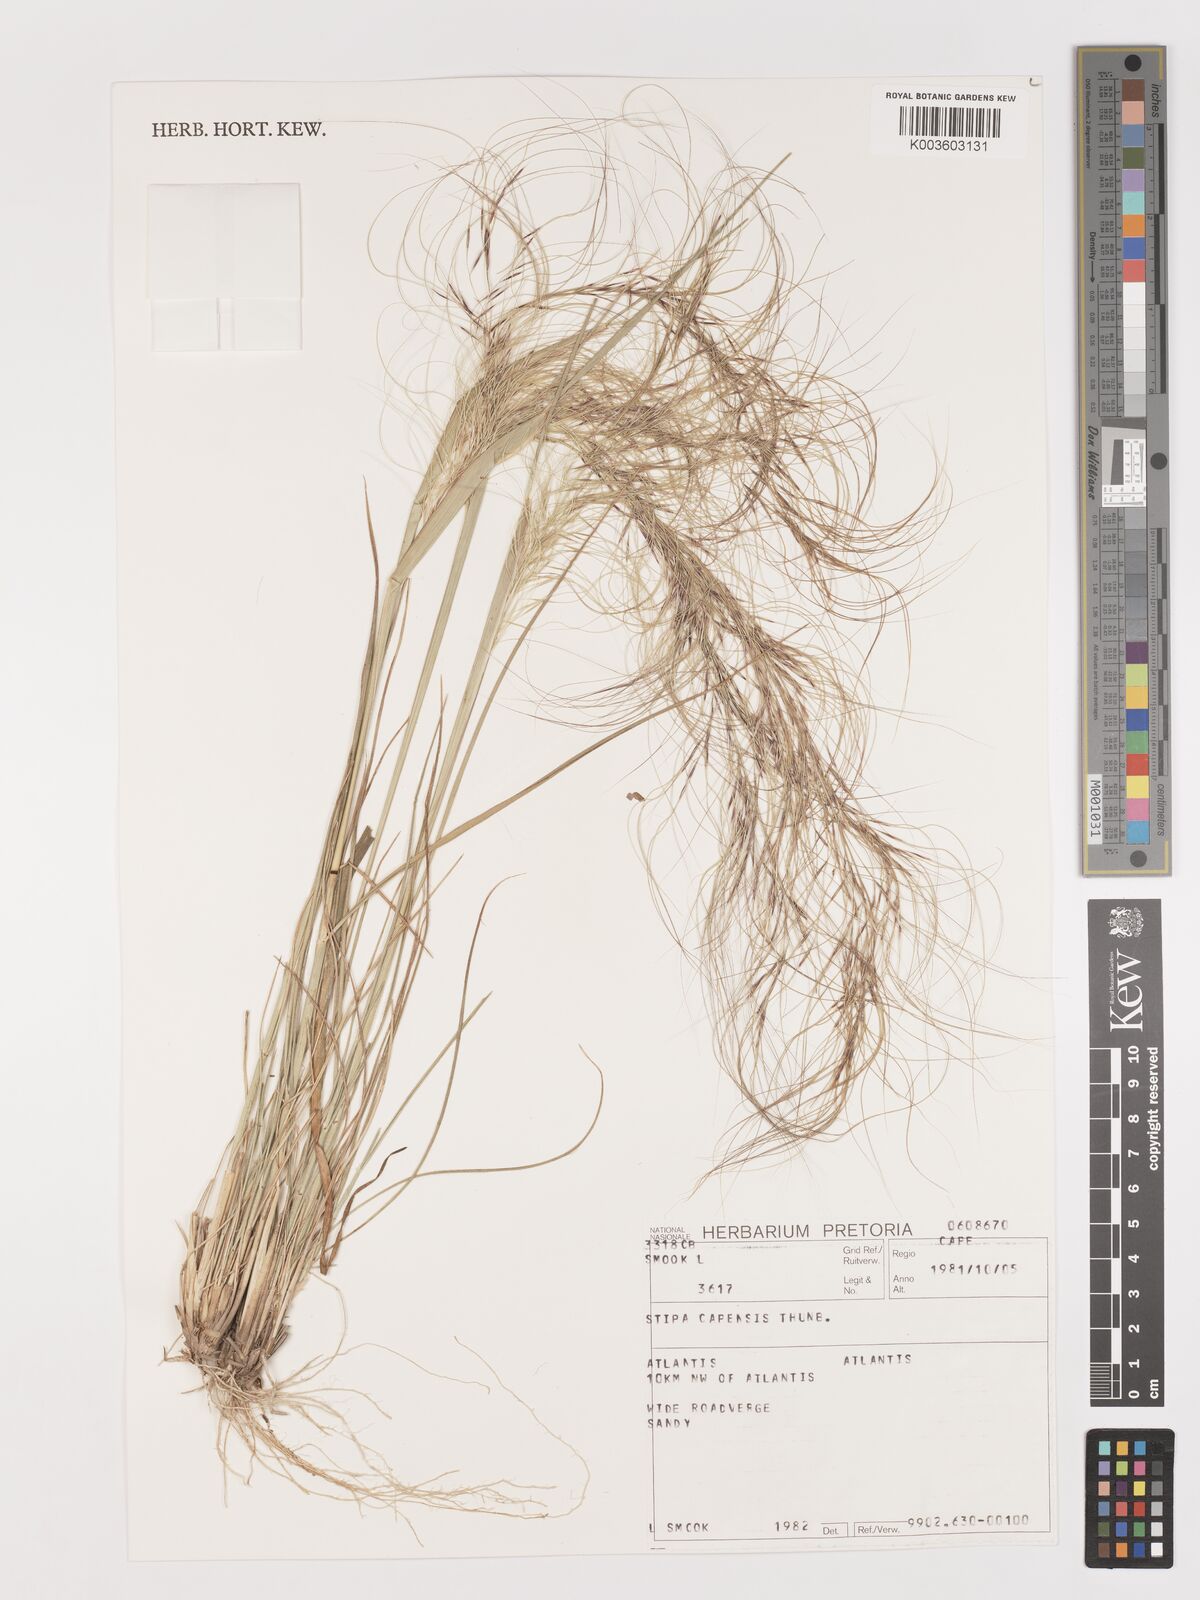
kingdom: Plantae
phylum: Tracheophyta
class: Liliopsida
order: Poales
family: Poaceae
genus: Stipellula
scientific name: Stipellula capensis
